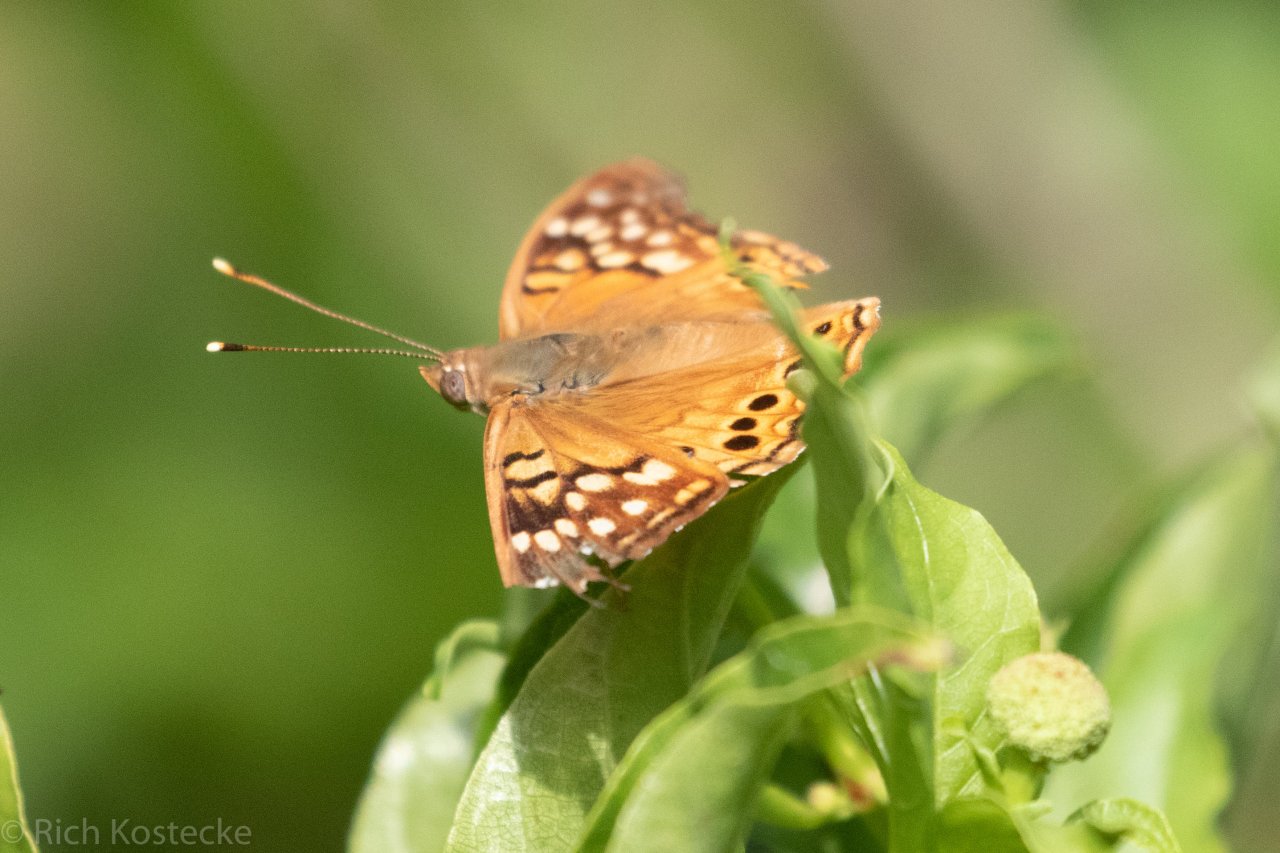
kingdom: Animalia
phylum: Arthropoda
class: Insecta
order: Lepidoptera
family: Nymphalidae
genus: Asterocampa
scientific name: Asterocampa clyton
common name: Tawny Emperor
